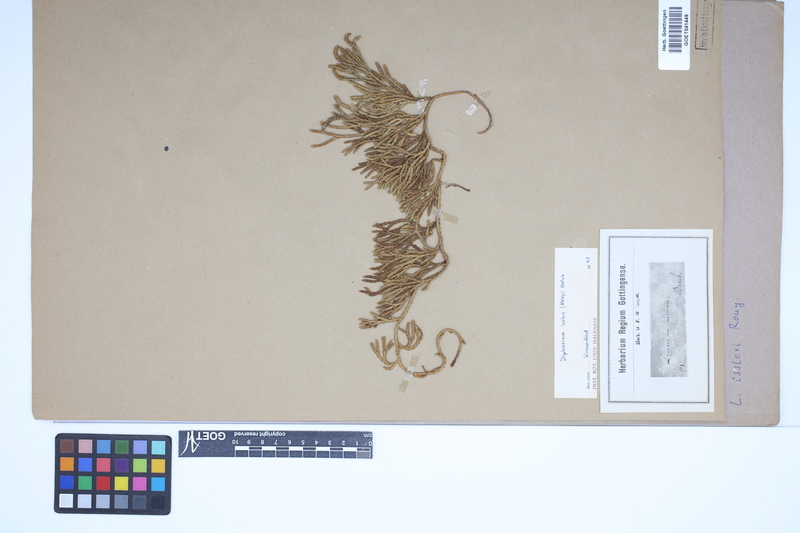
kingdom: Plantae
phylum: Tracheophyta
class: Lycopodiopsida
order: Lycopodiales
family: Lycopodiaceae
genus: Diphasiastrum
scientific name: Diphasiastrum issleri
